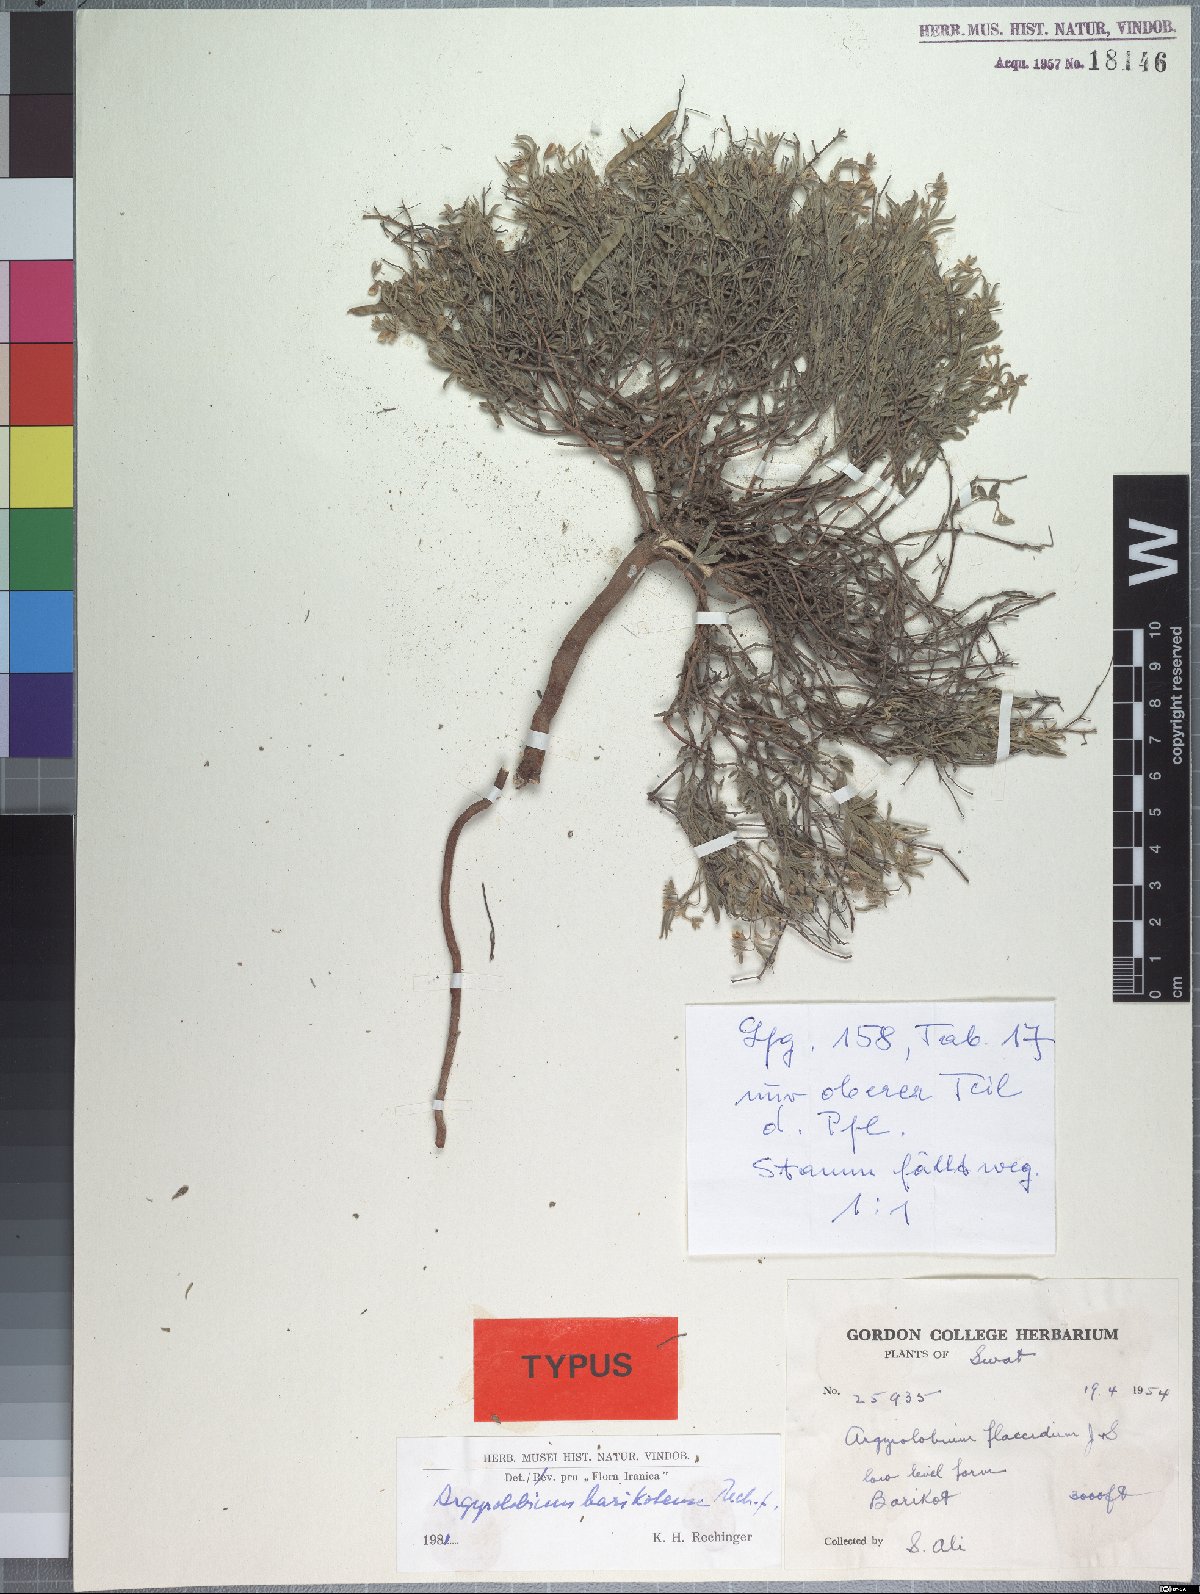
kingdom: Plantae
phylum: Tracheophyta
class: Magnoliopsida
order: Fabales
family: Fabaceae
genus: Argyrolobium
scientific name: Argyrolobium barikotense
